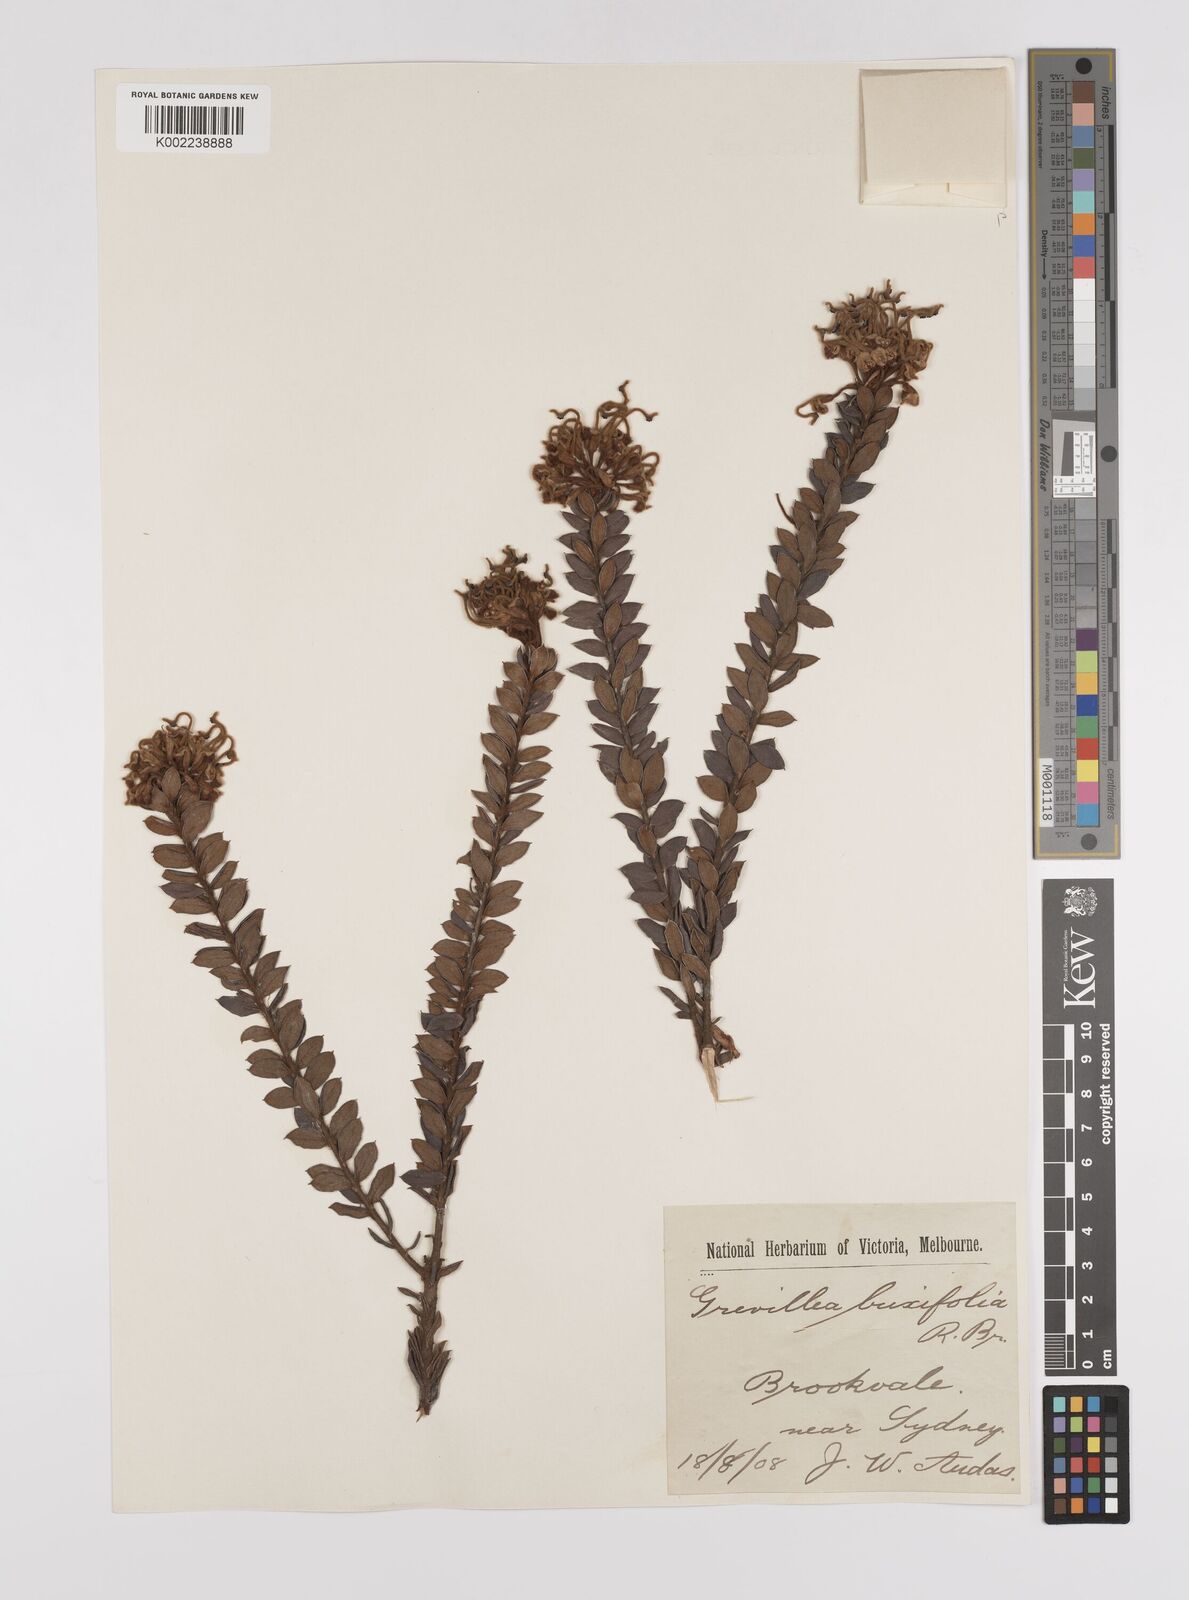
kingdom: Plantae
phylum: Tracheophyta
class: Magnoliopsida
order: Proteales
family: Proteaceae
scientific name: Proteaceae
